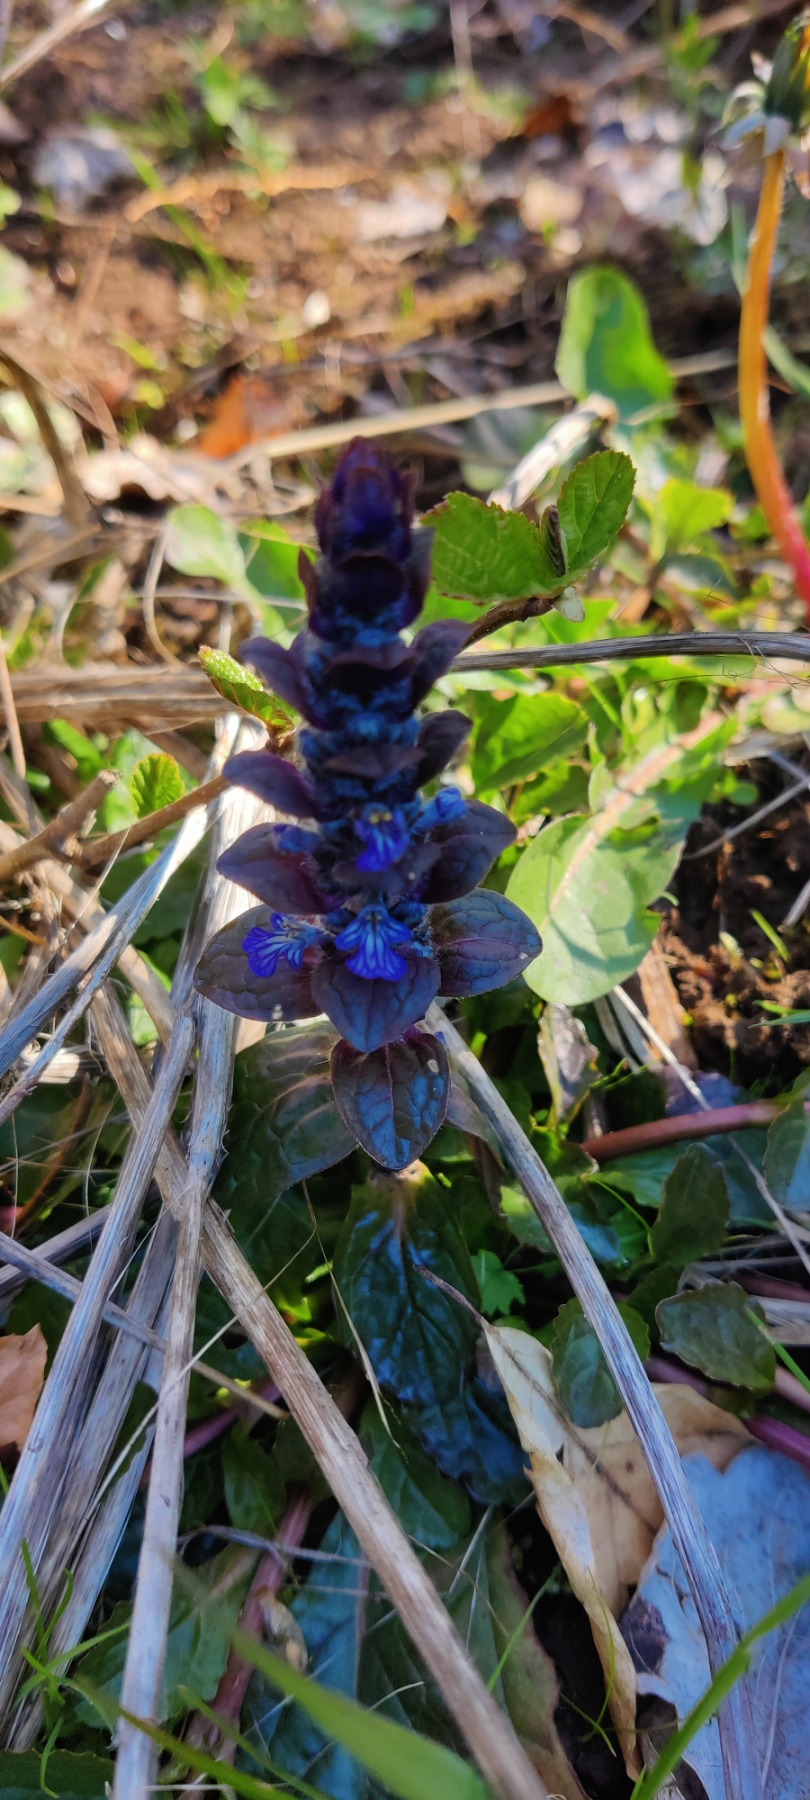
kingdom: Plantae
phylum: Tracheophyta
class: Magnoliopsida
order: Lamiales
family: Lamiaceae
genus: Ajuga
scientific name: Ajuga reptans
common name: Krybende læbeløs
